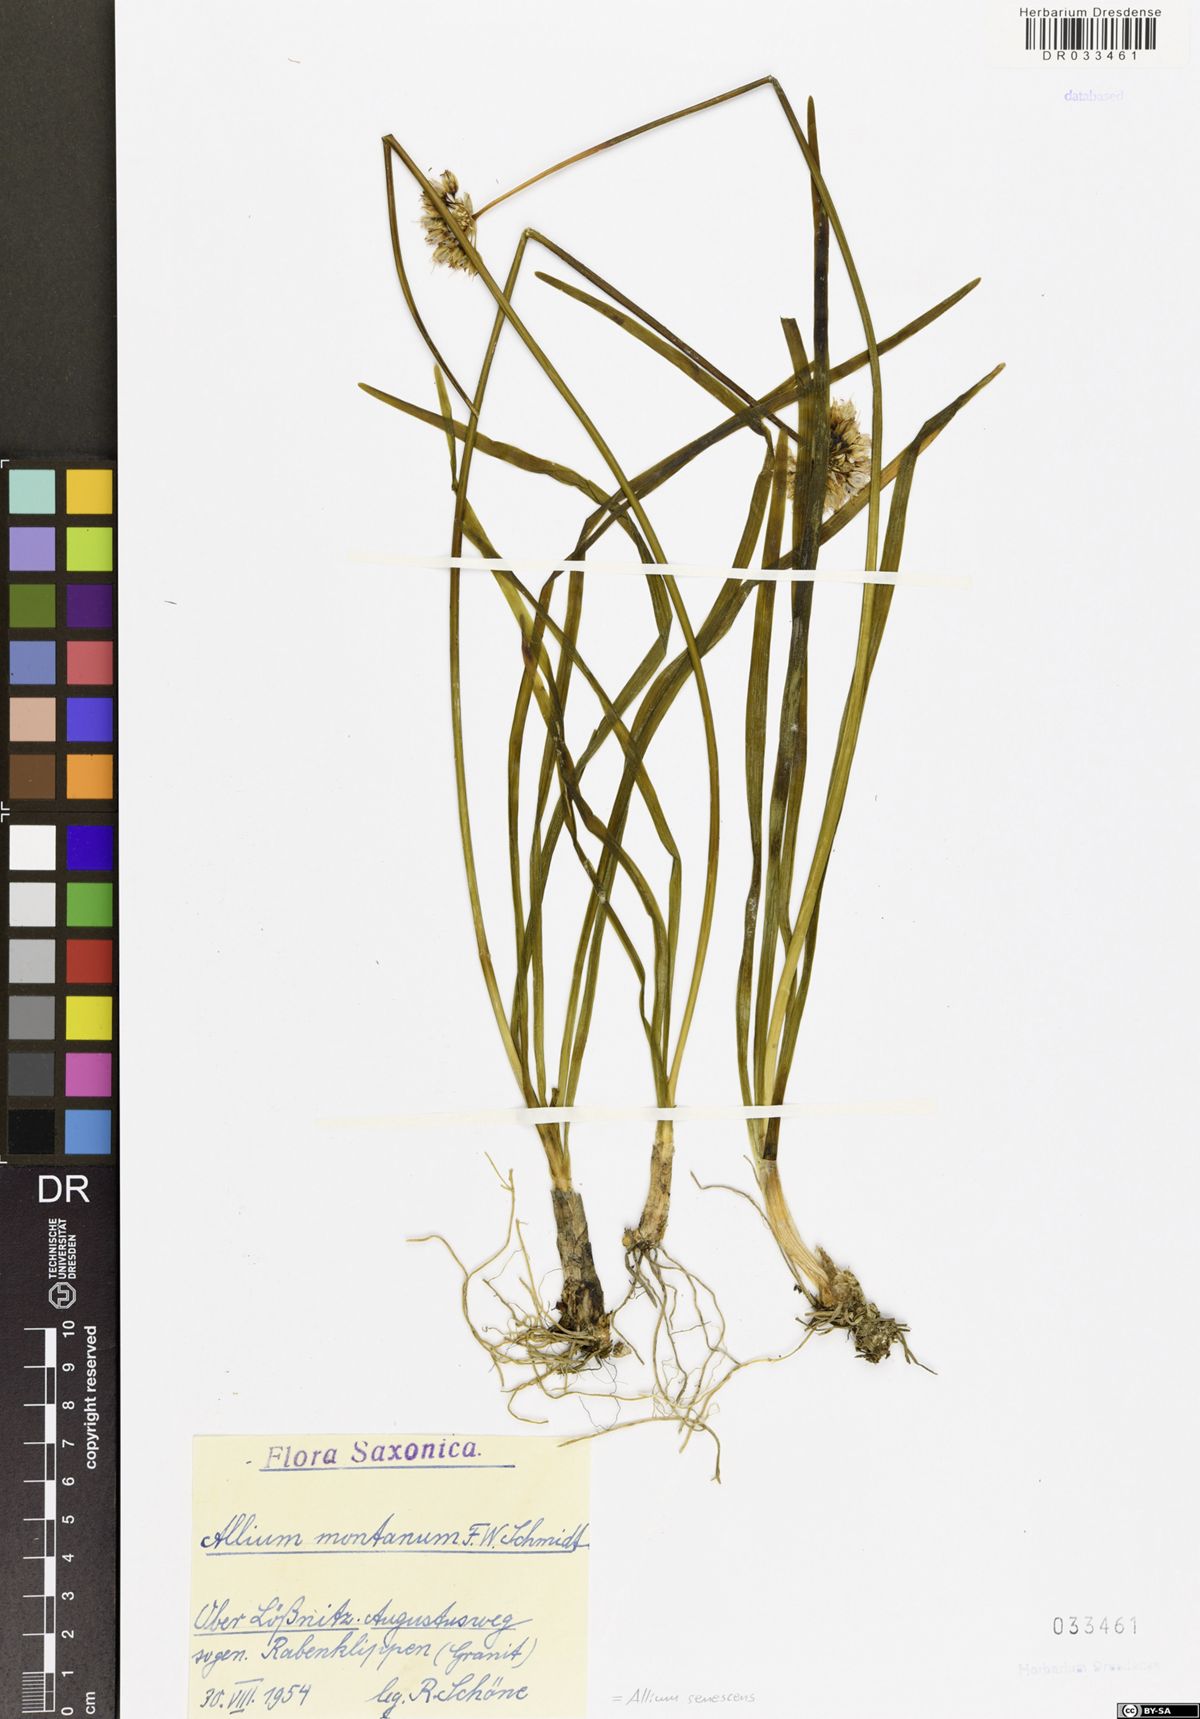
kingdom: Plantae
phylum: Tracheophyta
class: Liliopsida
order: Asparagales
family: Amaryllidaceae
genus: Allium
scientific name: Allium senescens
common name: German garlic
